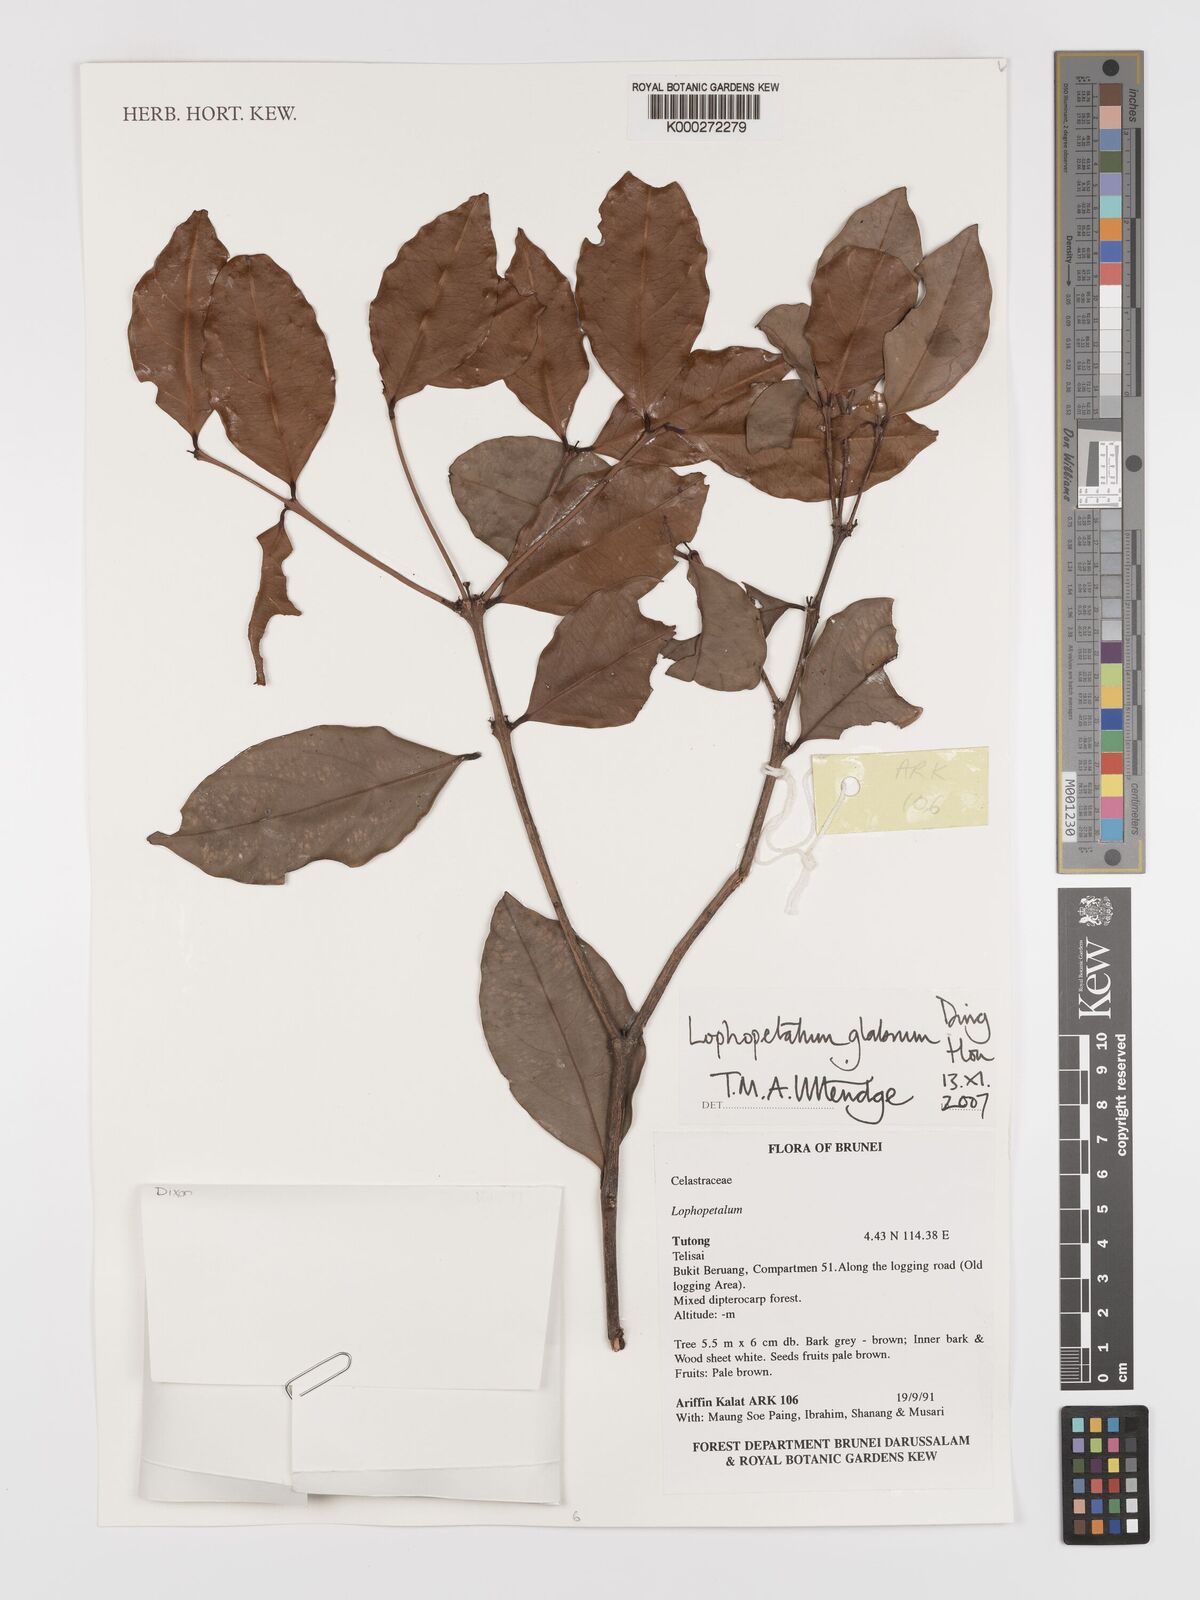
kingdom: Plantae
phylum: Tracheophyta
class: Magnoliopsida
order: Celastrales
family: Celastraceae
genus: Lophopetalum
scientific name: Lophopetalum glabrum
